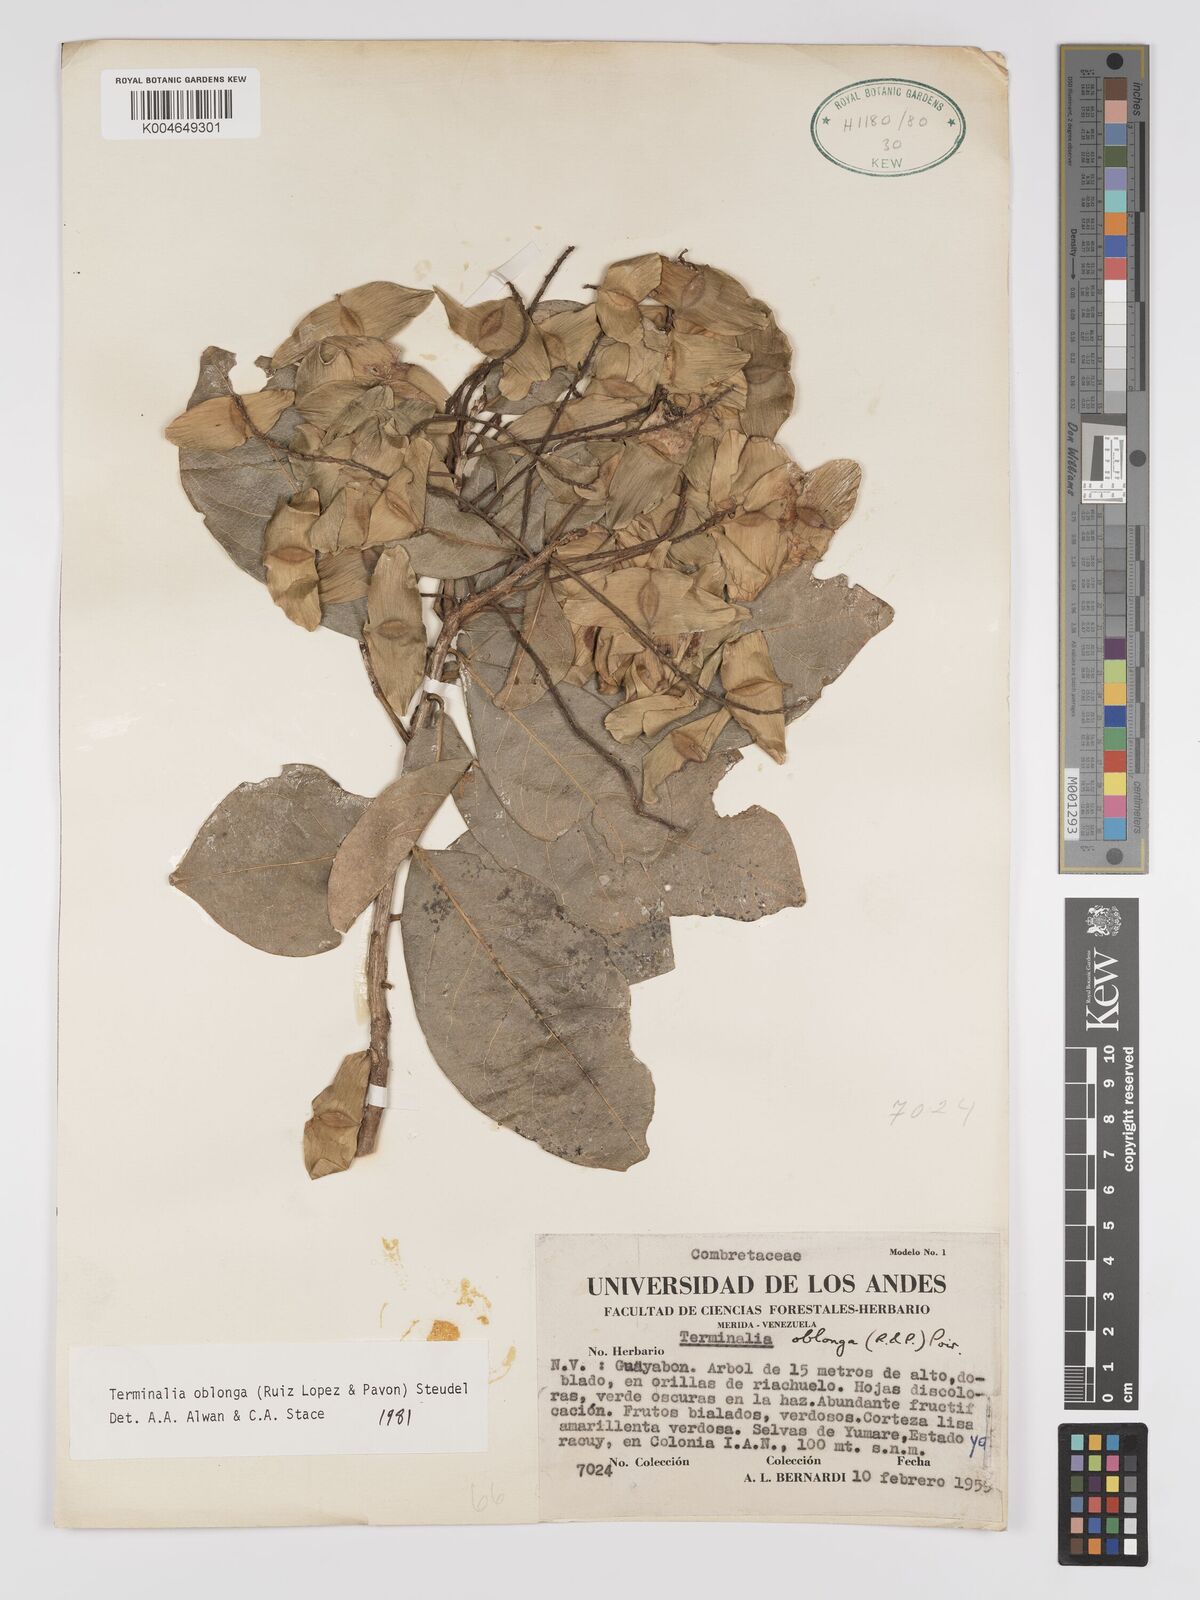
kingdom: Plantae
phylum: Tracheophyta
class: Magnoliopsida
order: Myrtales
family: Combretaceae
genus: Terminalia
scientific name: Terminalia oblonga
